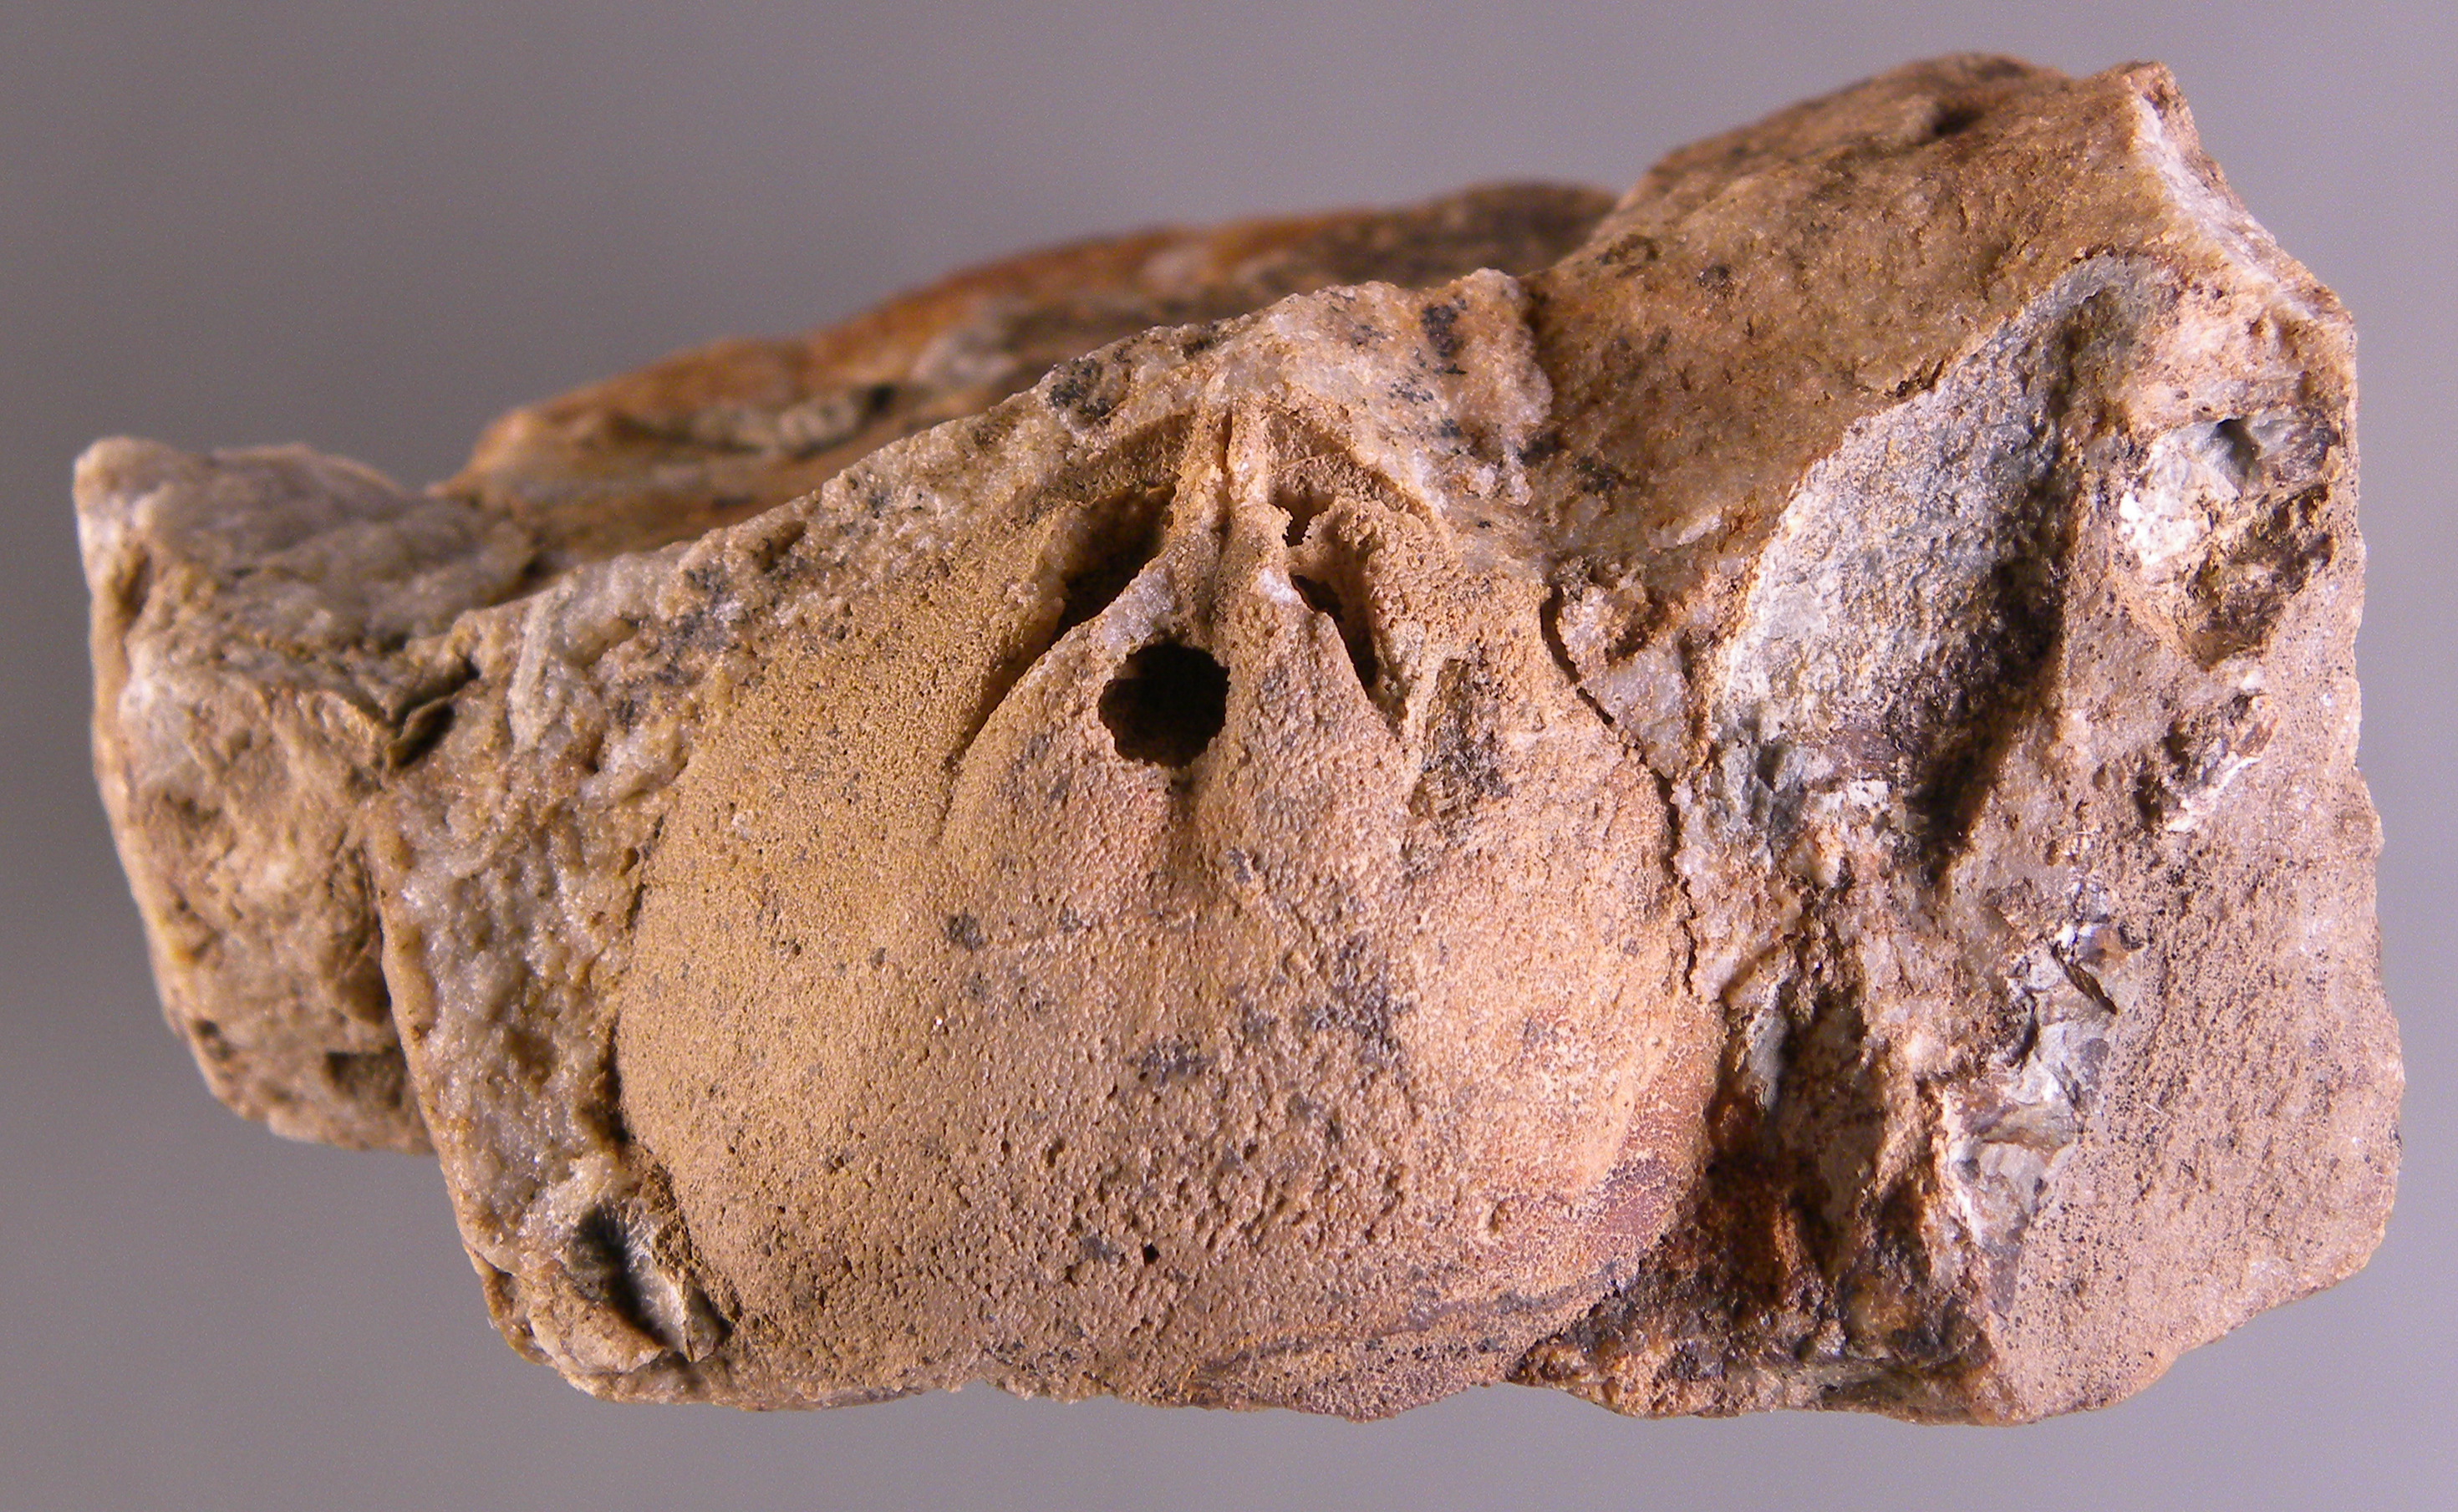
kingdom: Animalia
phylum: Brachiopoda
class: Rhynchonellata
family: Schizophoriidae
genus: Schizophoria
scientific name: Schizophoria
